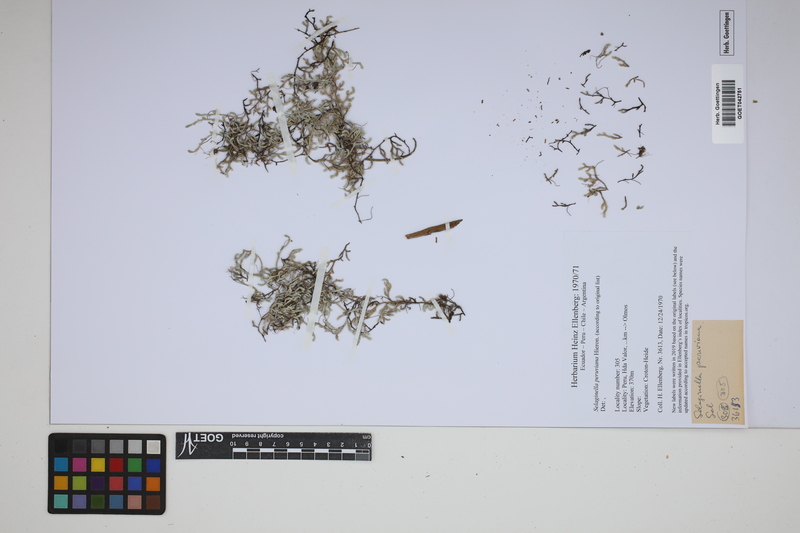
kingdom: Plantae
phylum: Tracheophyta
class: Lycopodiopsida
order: Selaginellales
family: Selaginellaceae
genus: Selaginella
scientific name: Selaginella peruviana
